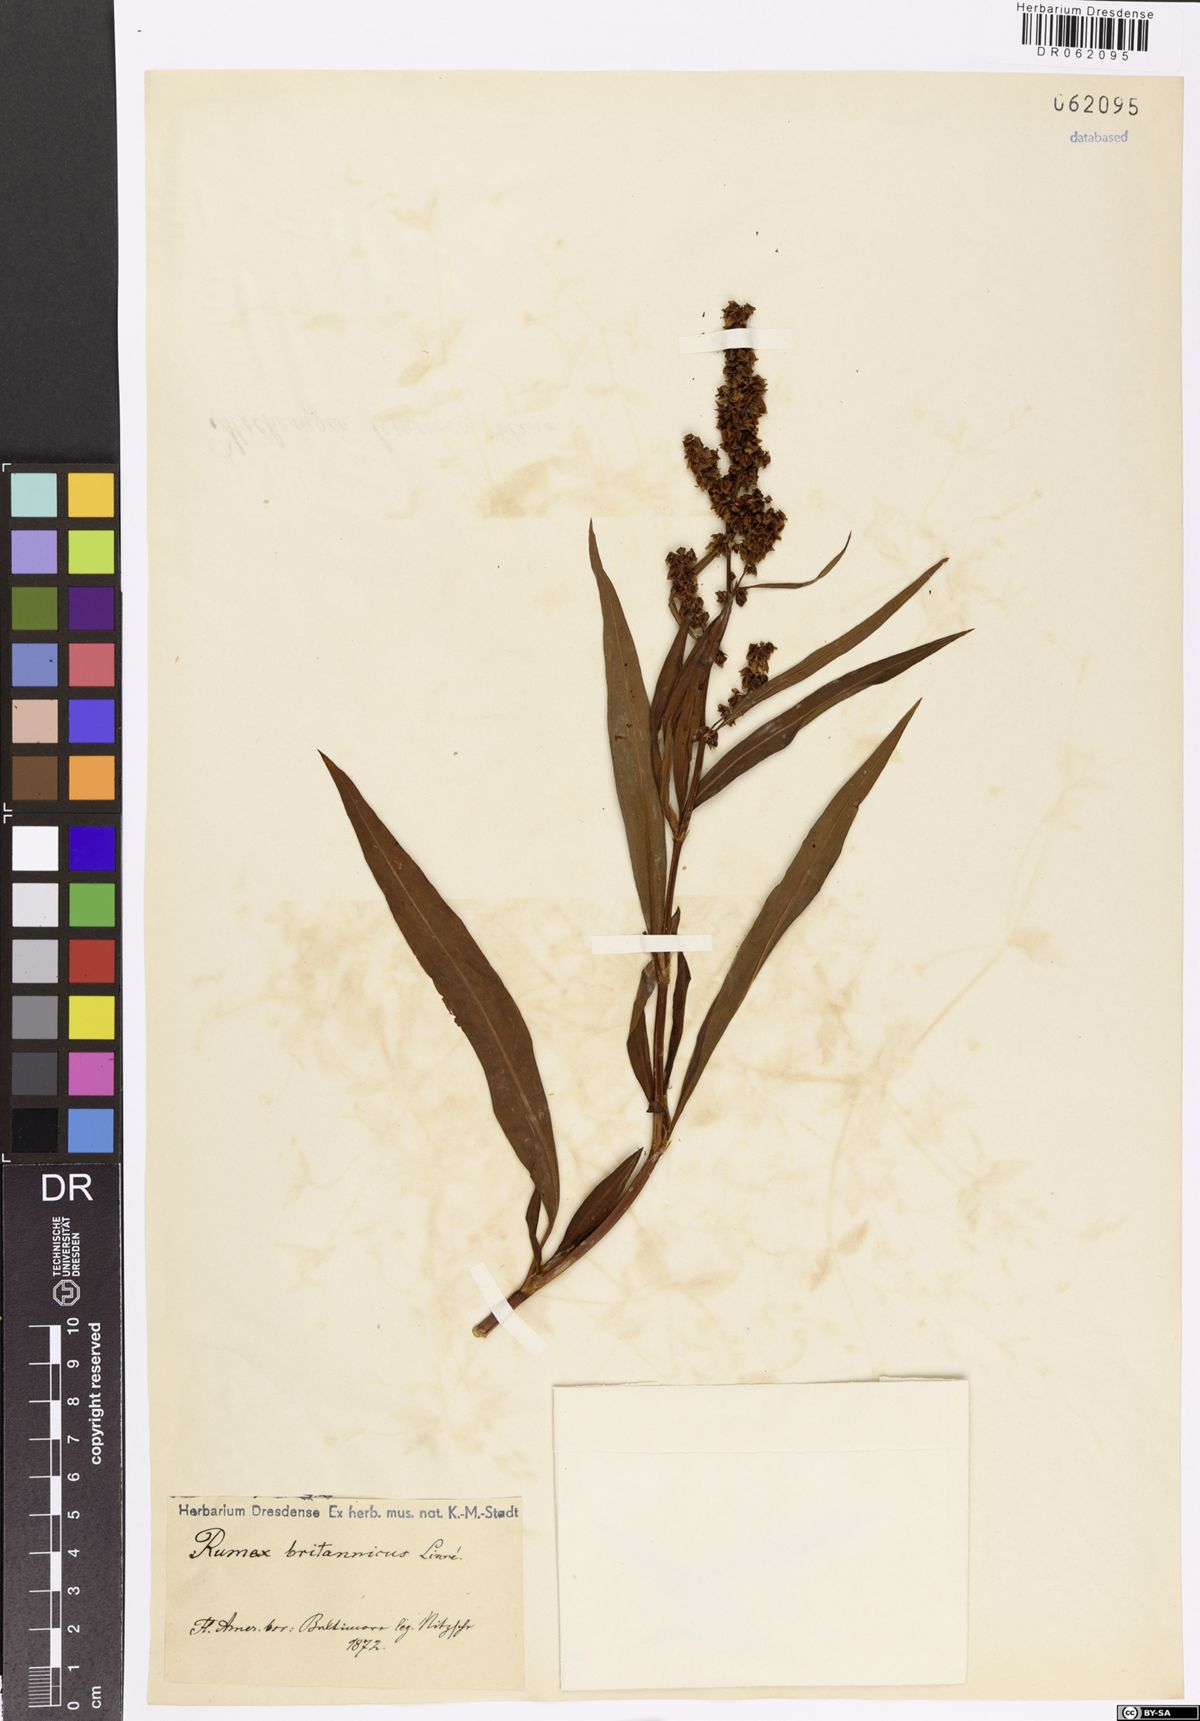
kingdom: Plantae
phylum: Tracheophyta
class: Magnoliopsida
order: Caryophyllales
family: Polygonaceae
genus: Rumex
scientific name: Rumex britannica
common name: British dock
